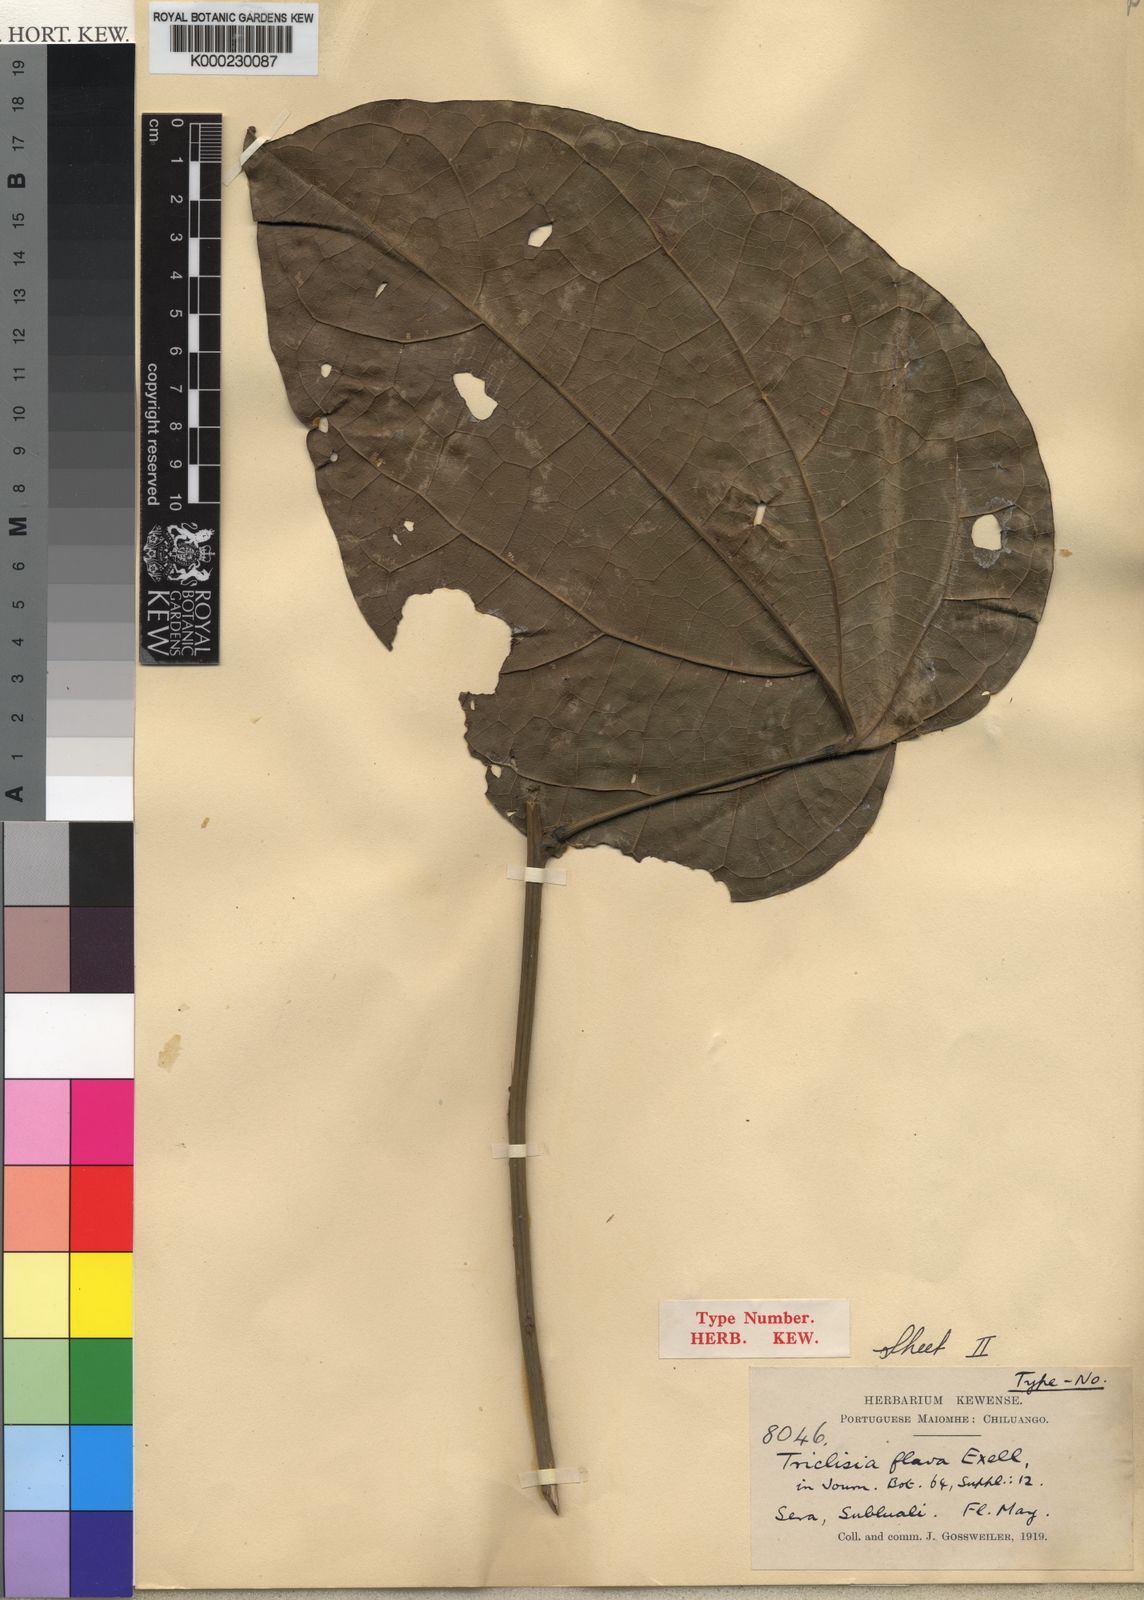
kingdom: Plantae
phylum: Tracheophyta
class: Magnoliopsida
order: Ranunculales
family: Menispermaceae
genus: Triclisia
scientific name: Triclisia dictyophylla
